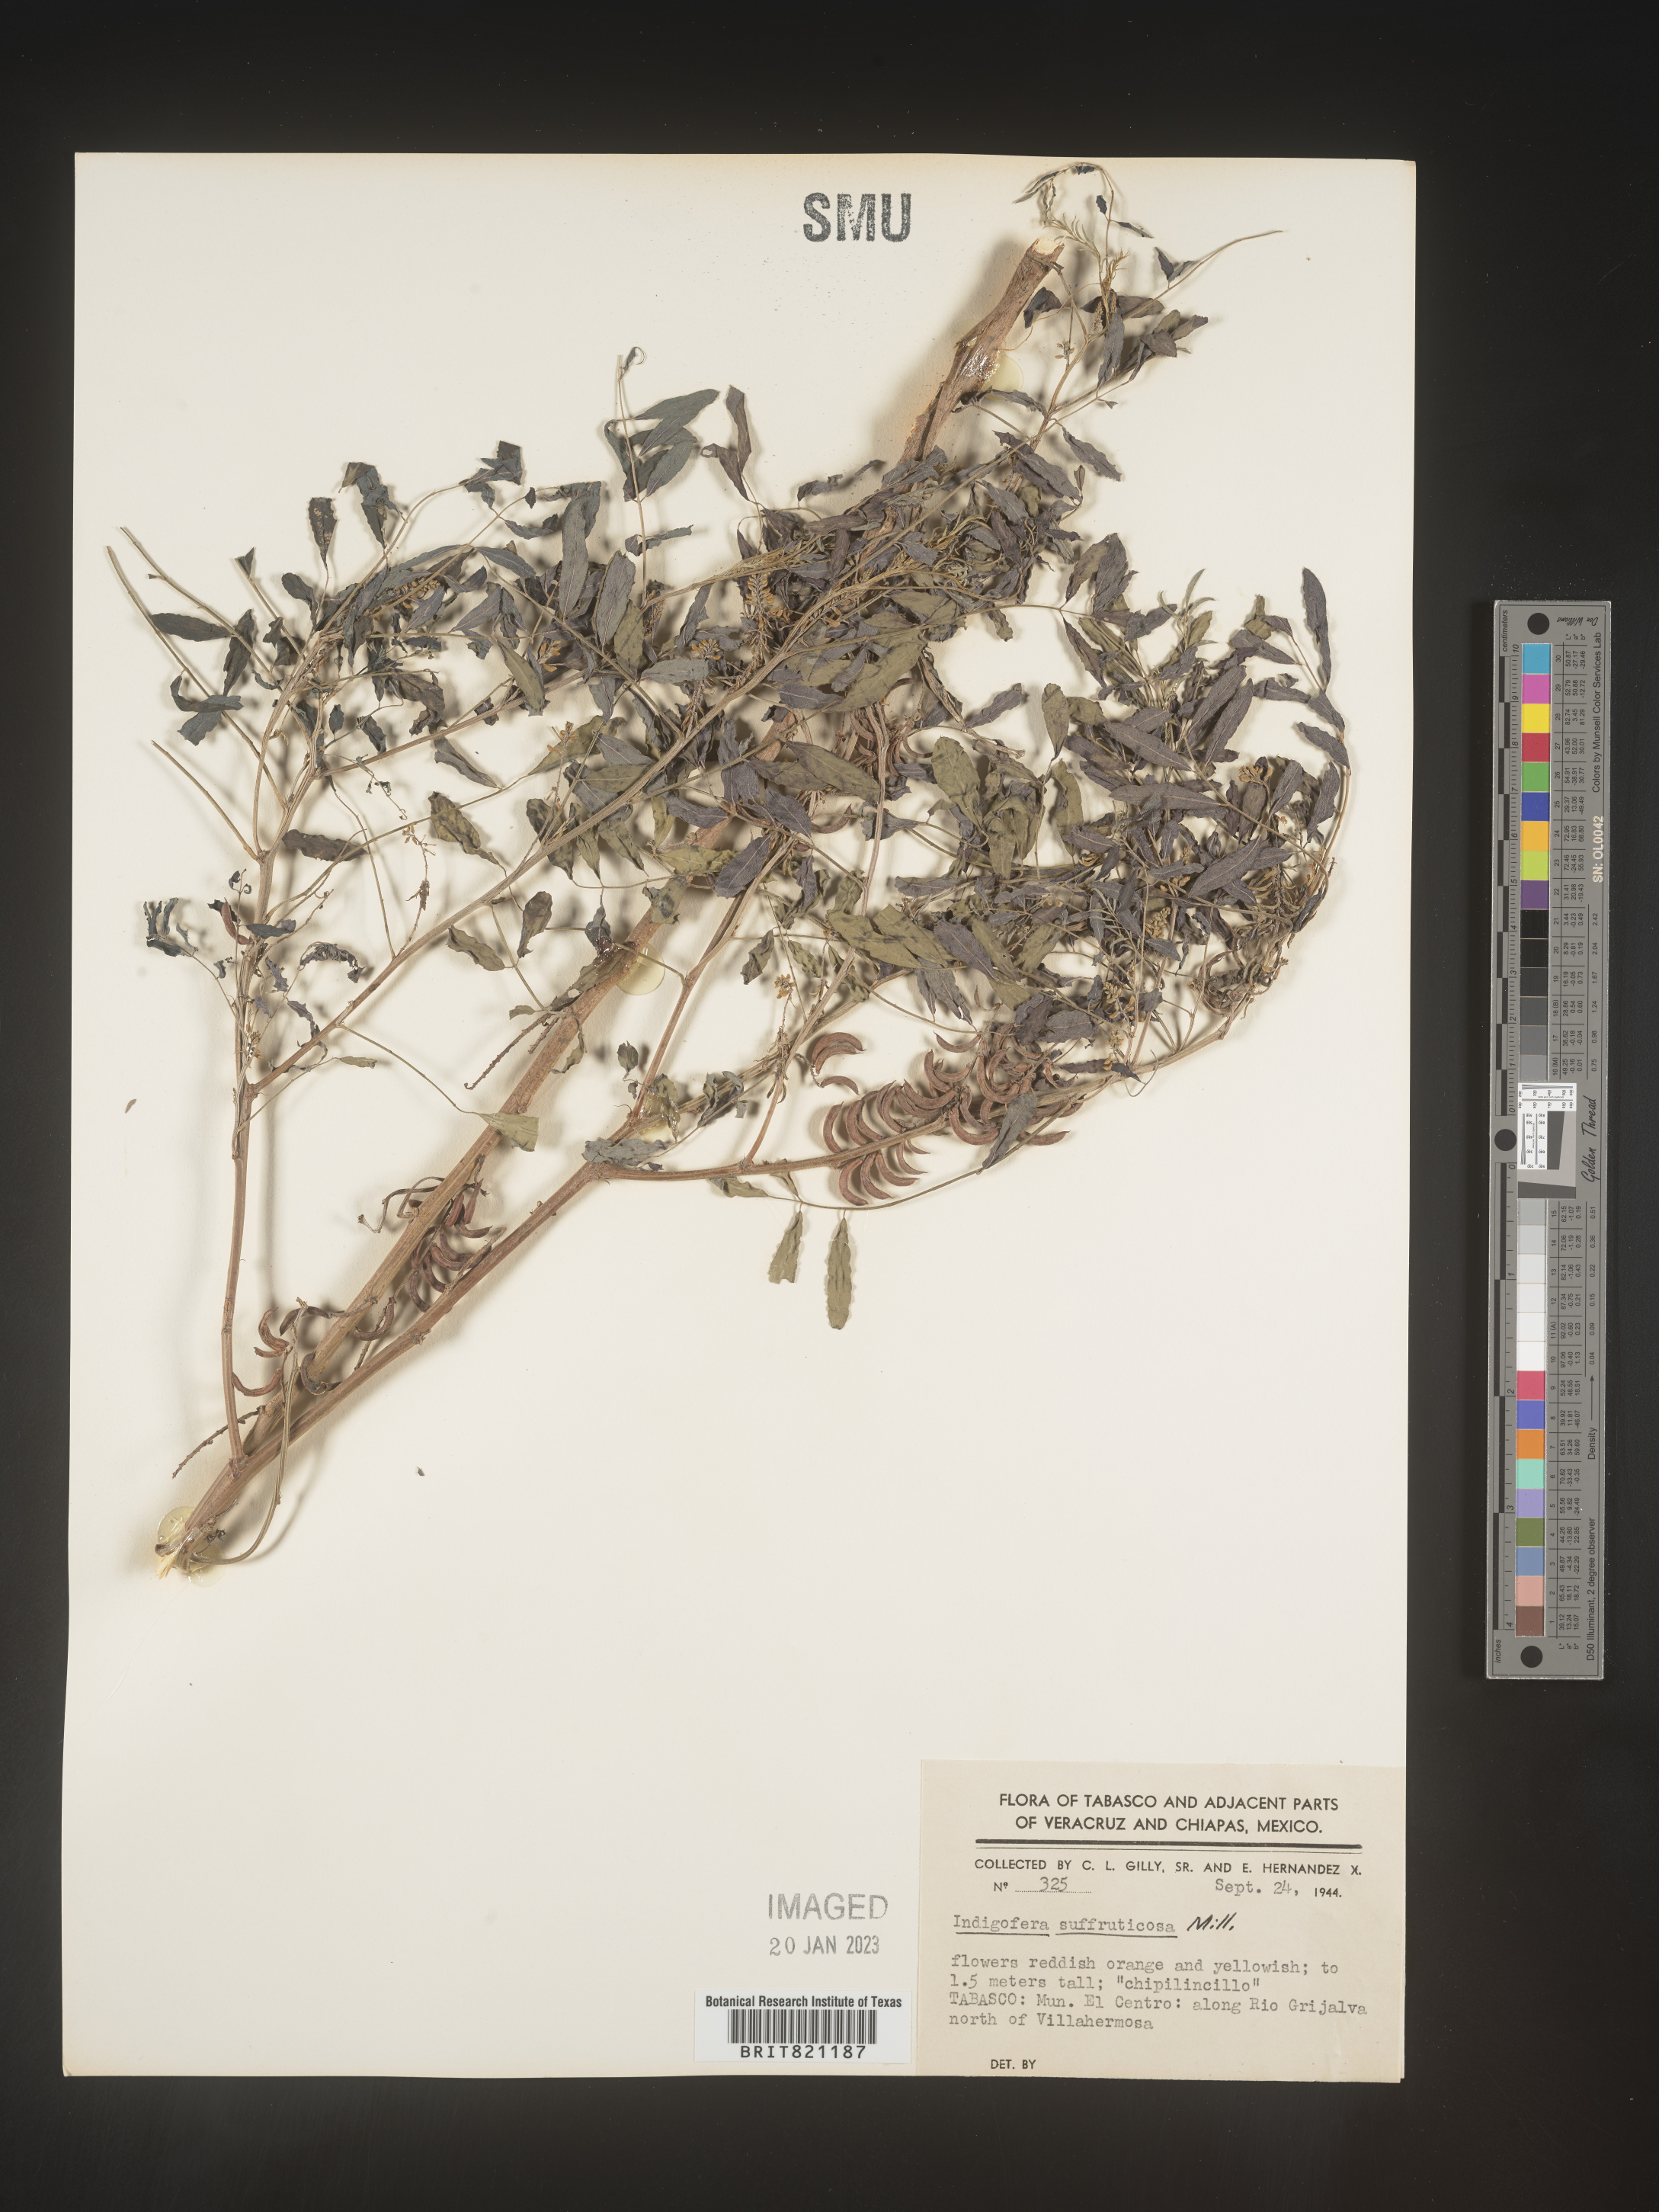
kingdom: Plantae
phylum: Tracheophyta
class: Magnoliopsida
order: Fabales
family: Fabaceae
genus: Indigofera
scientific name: Indigofera
